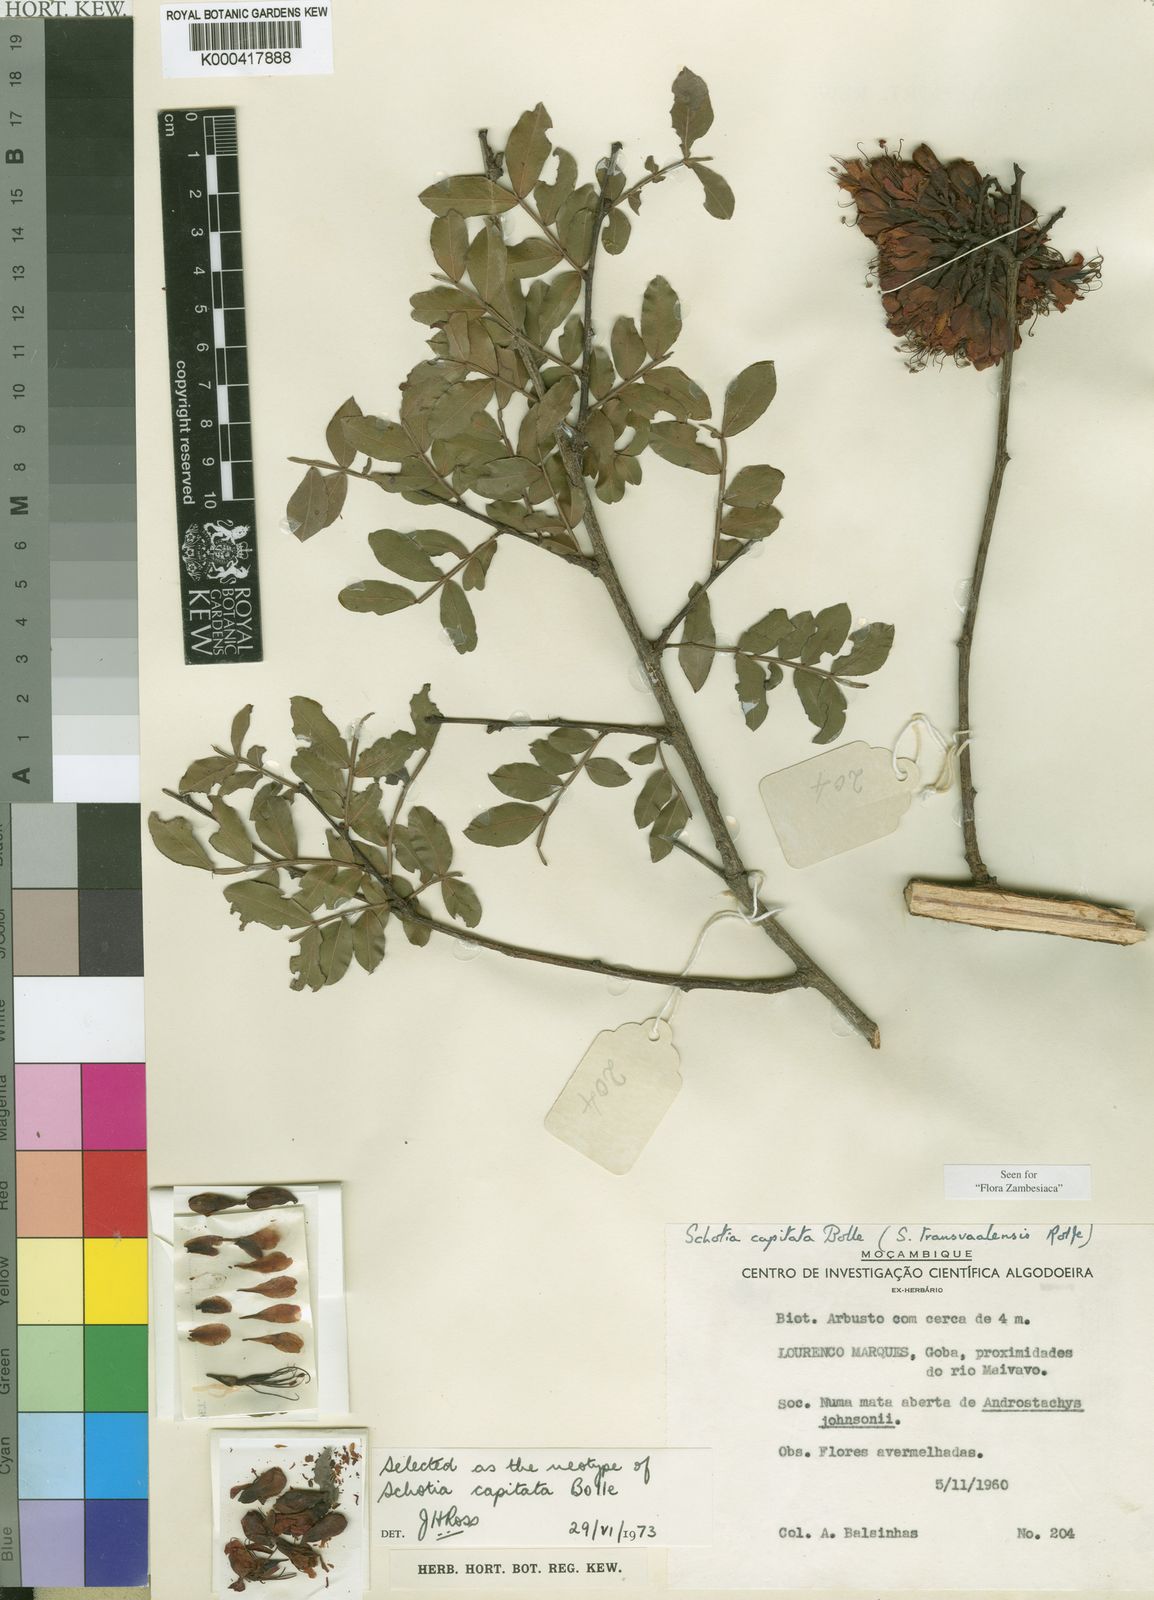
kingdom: Plantae
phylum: Tracheophyta
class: Magnoliopsida
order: Fabales
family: Fabaceae
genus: Schotia
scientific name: Schotia capitata
